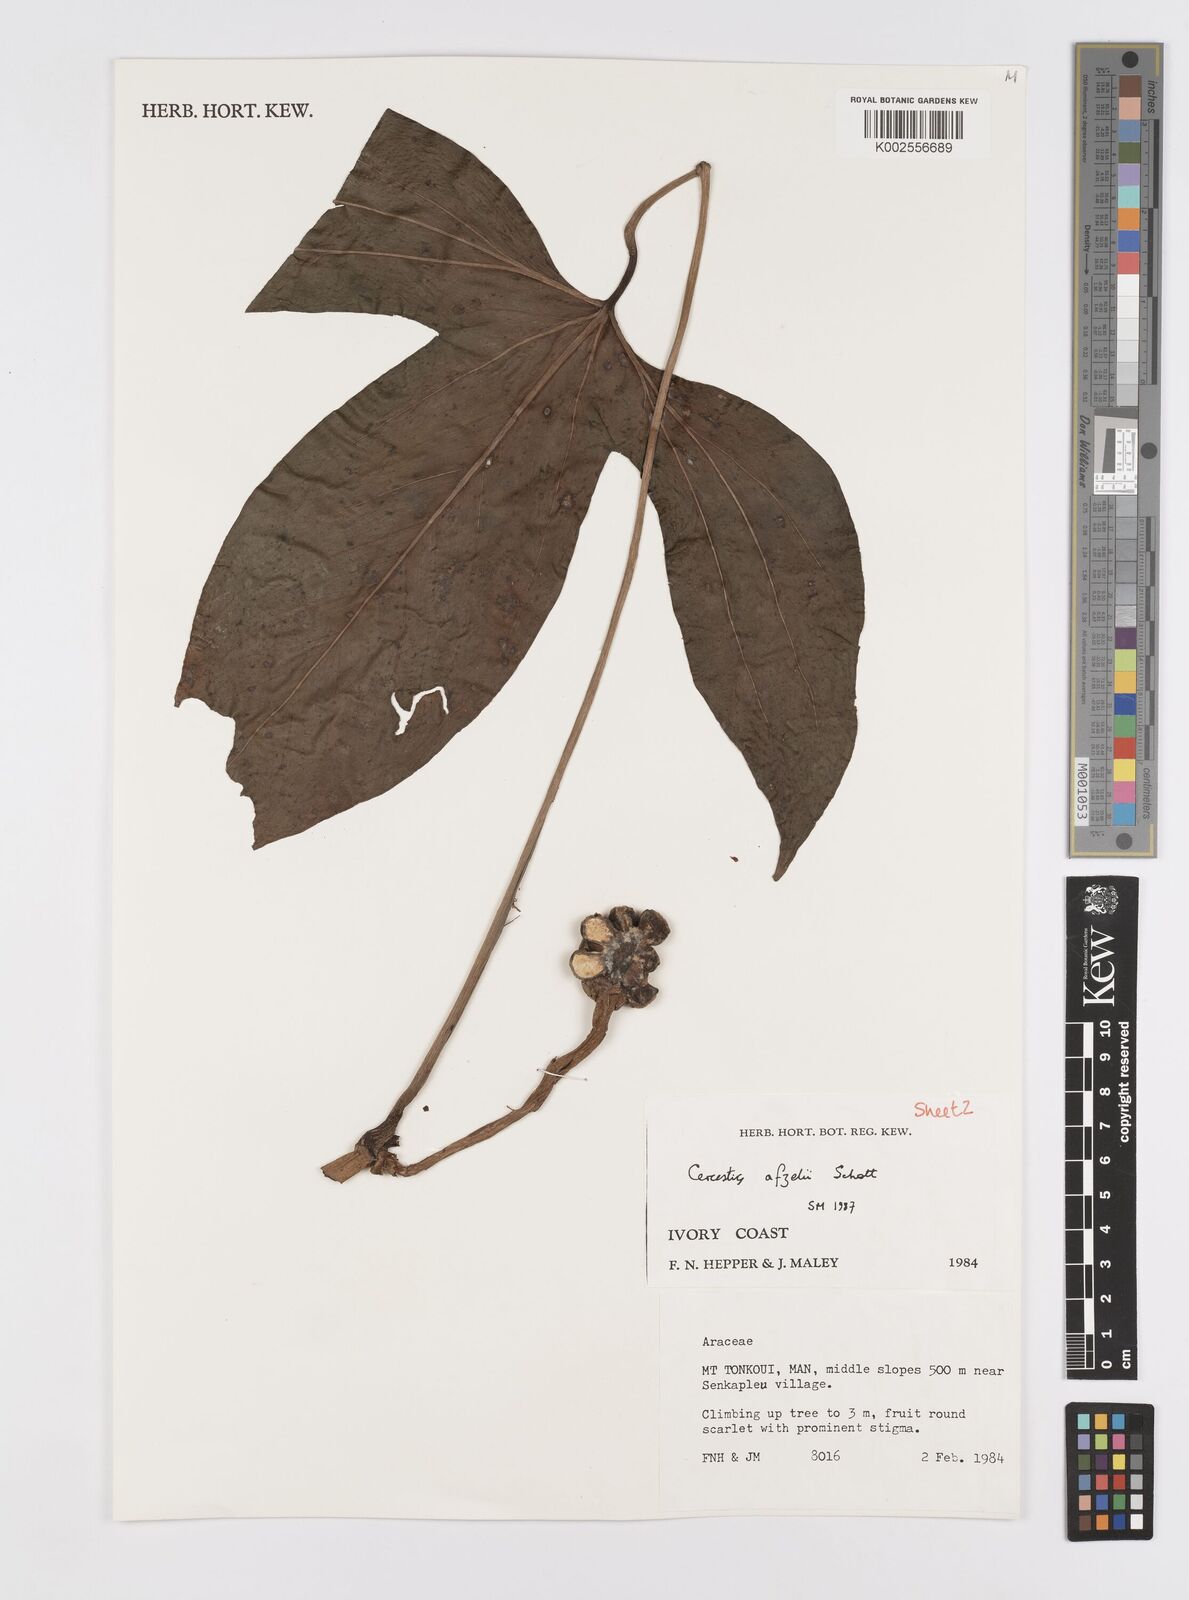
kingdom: Plantae
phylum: Tracheophyta
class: Liliopsida
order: Alismatales
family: Araceae
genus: Cercestis
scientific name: Cercestis afzelii
